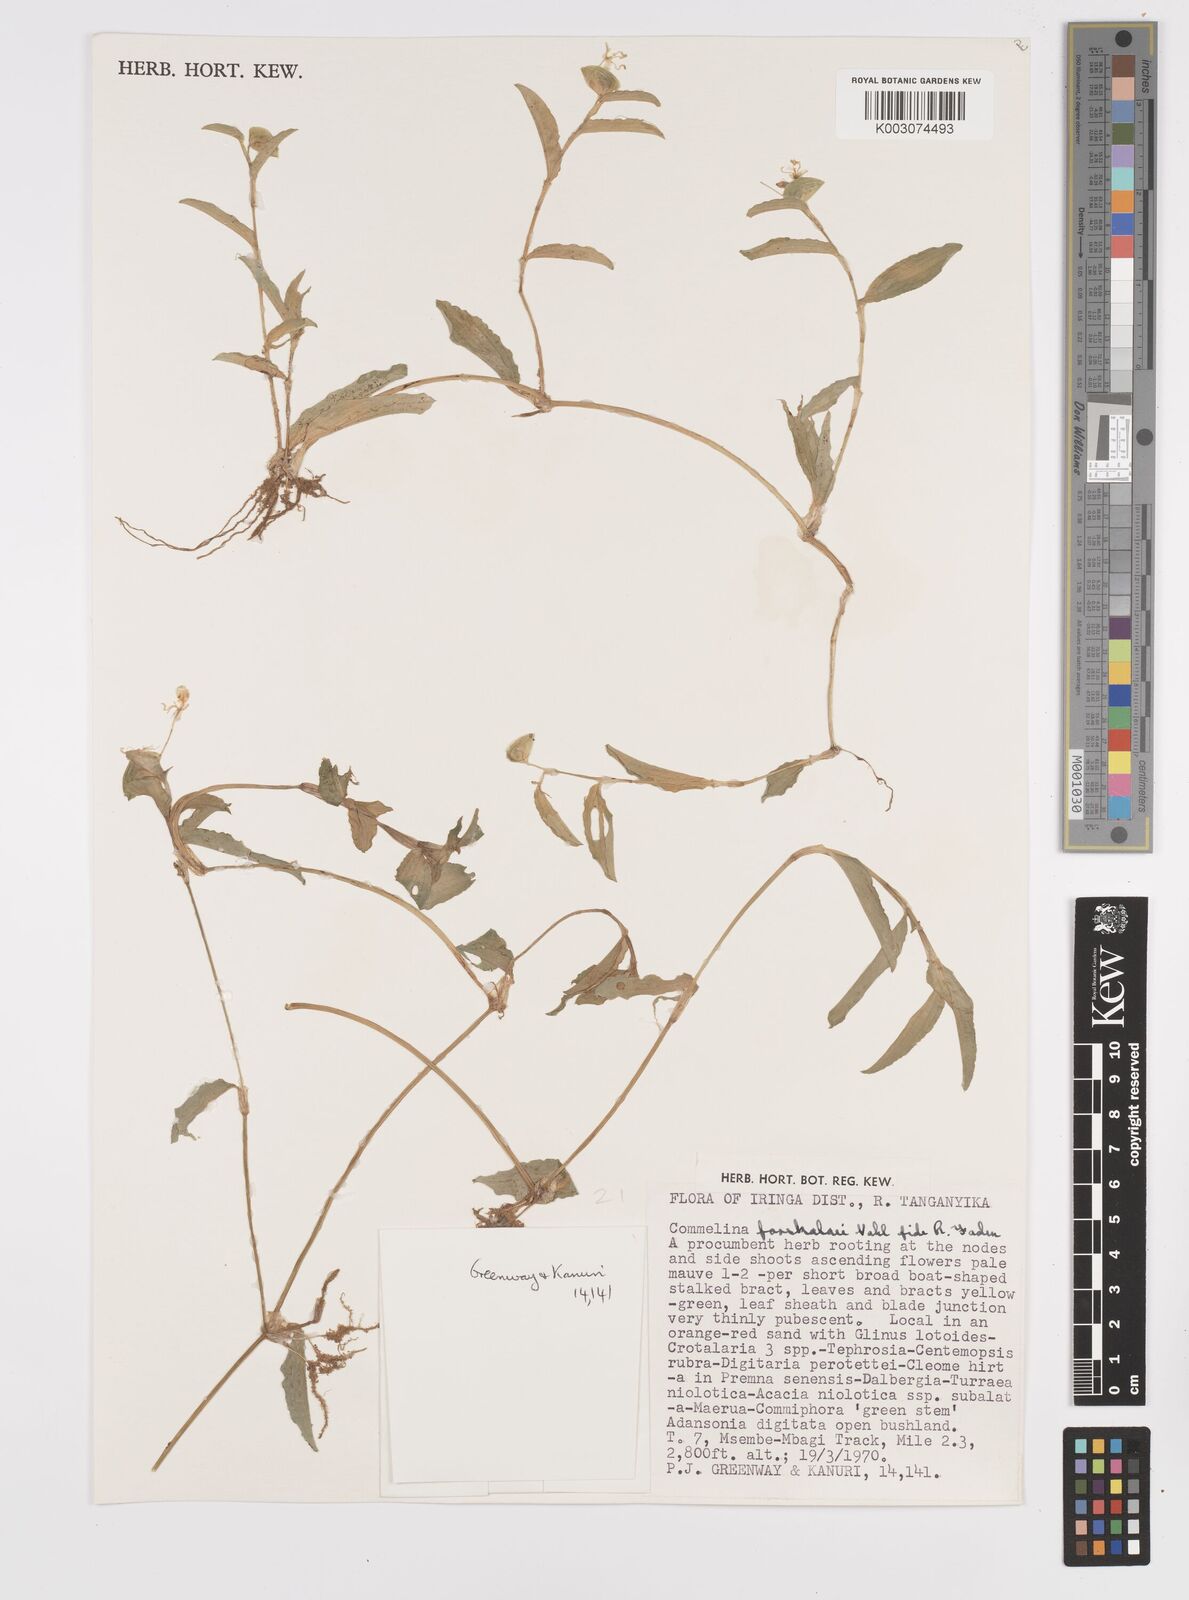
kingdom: Plantae
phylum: Tracheophyta
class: Liliopsida
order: Commelinales
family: Commelinaceae
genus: Commelina
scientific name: Commelina
